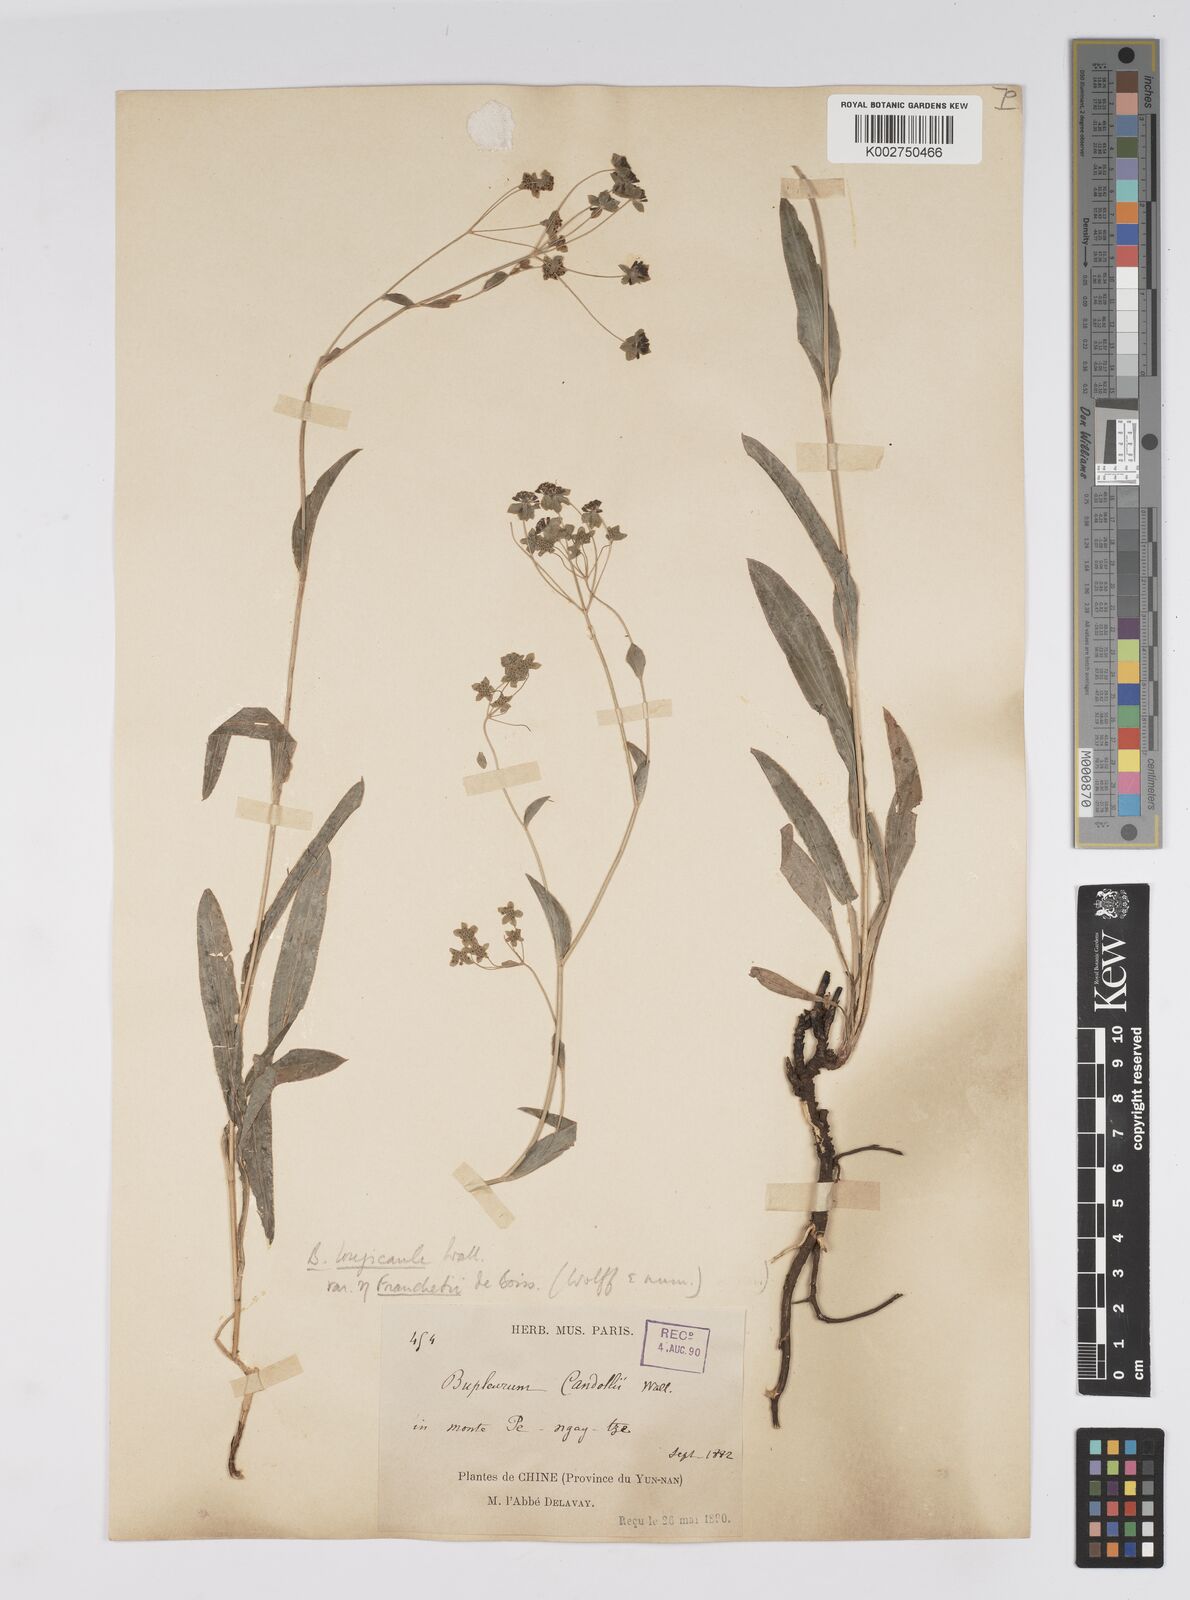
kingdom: Plantae
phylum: Tracheophyta
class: Magnoliopsida
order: Apiales
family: Apiaceae
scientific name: Apiaceae
